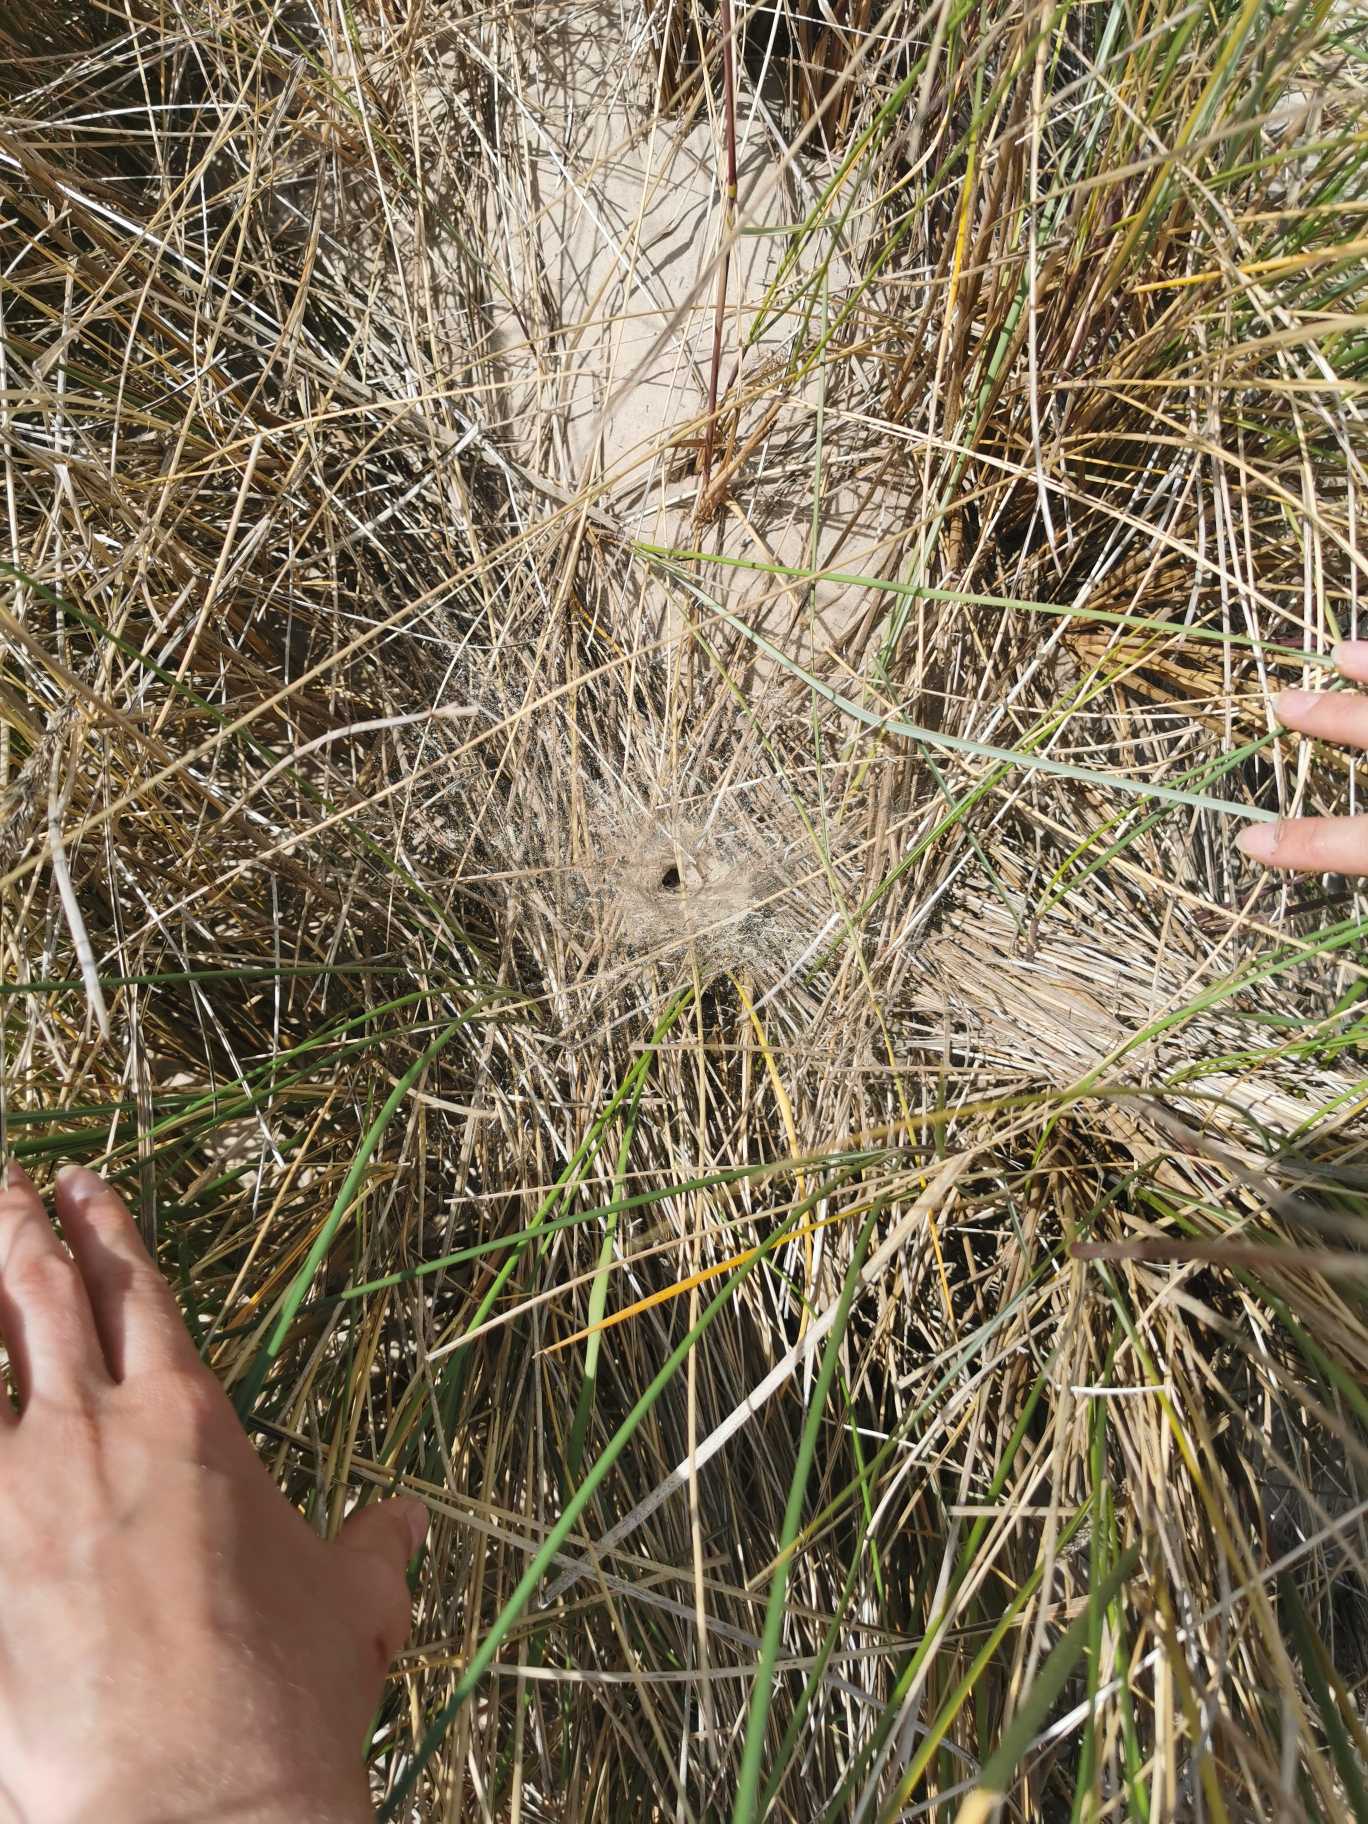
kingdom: Animalia
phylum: Arthropoda
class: Arachnida
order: Araneae
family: Agelenidae
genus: Agelena
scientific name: Agelena labyrinthica
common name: Labyrintedderkop
